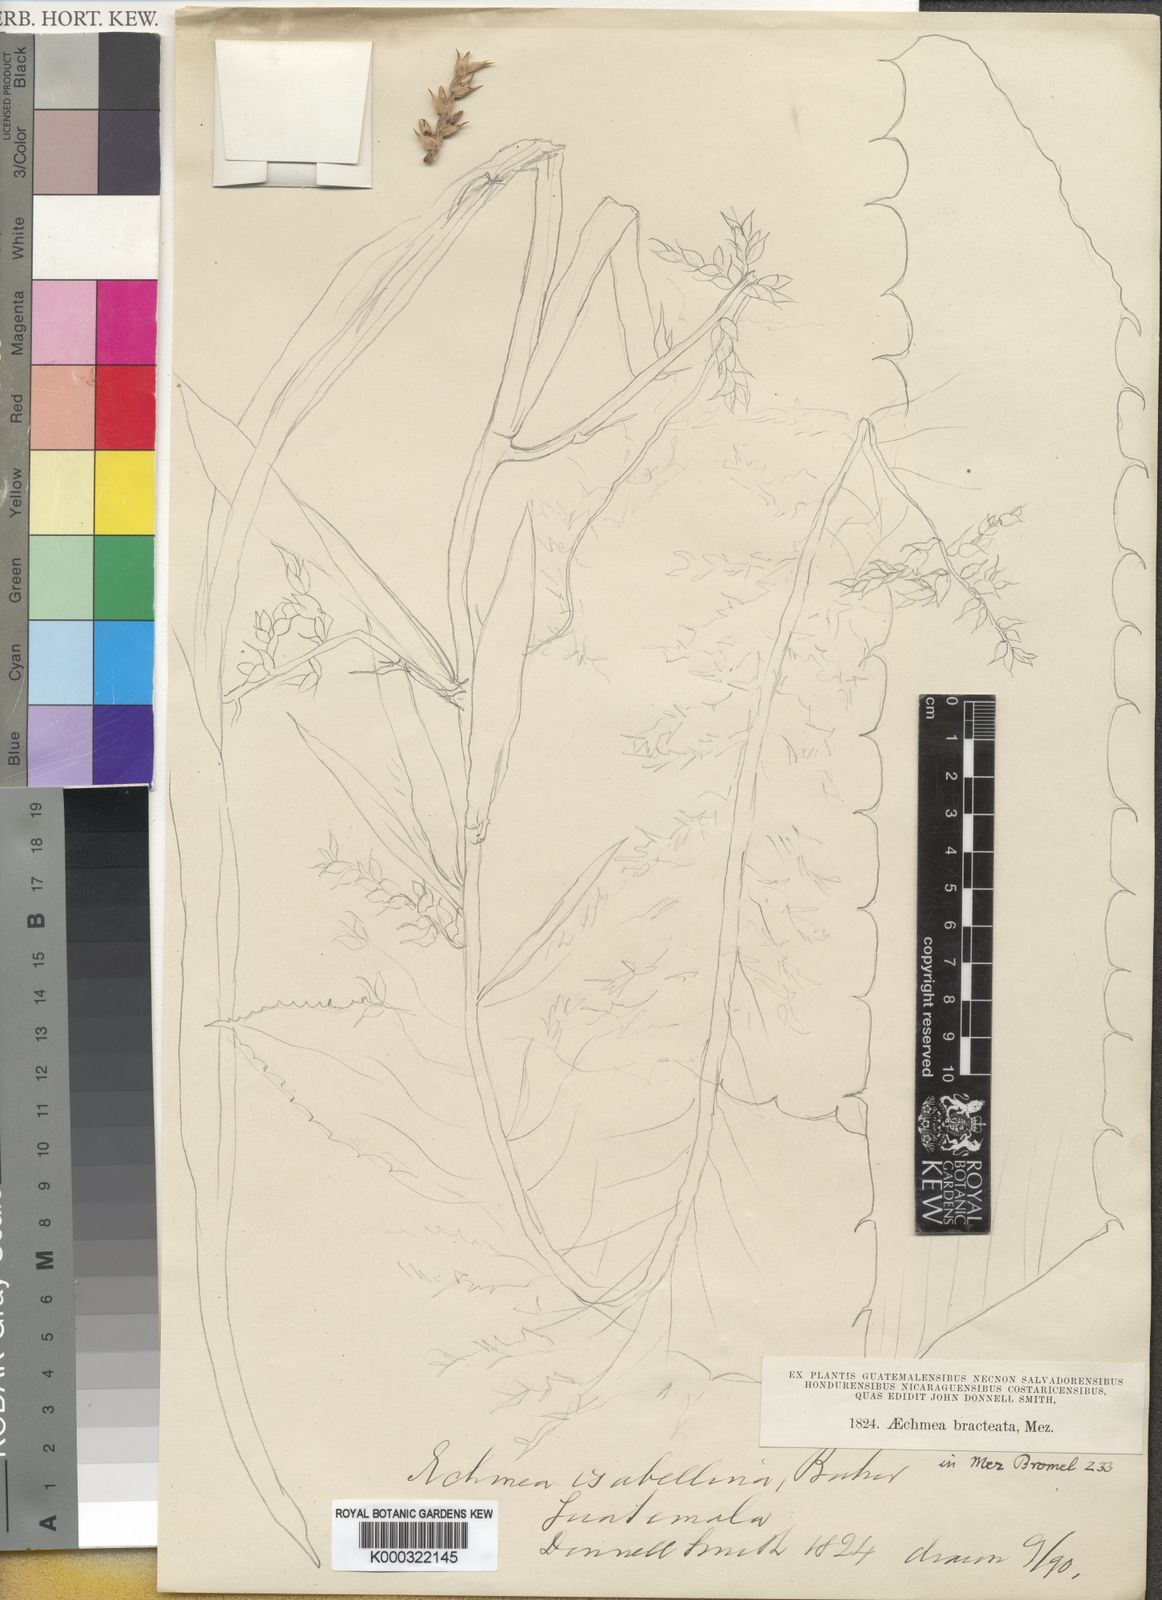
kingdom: Plantae
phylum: Tracheophyta
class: Liliopsida
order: Poales
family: Bromeliaceae
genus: Aechmea
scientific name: Aechmea bracteata
